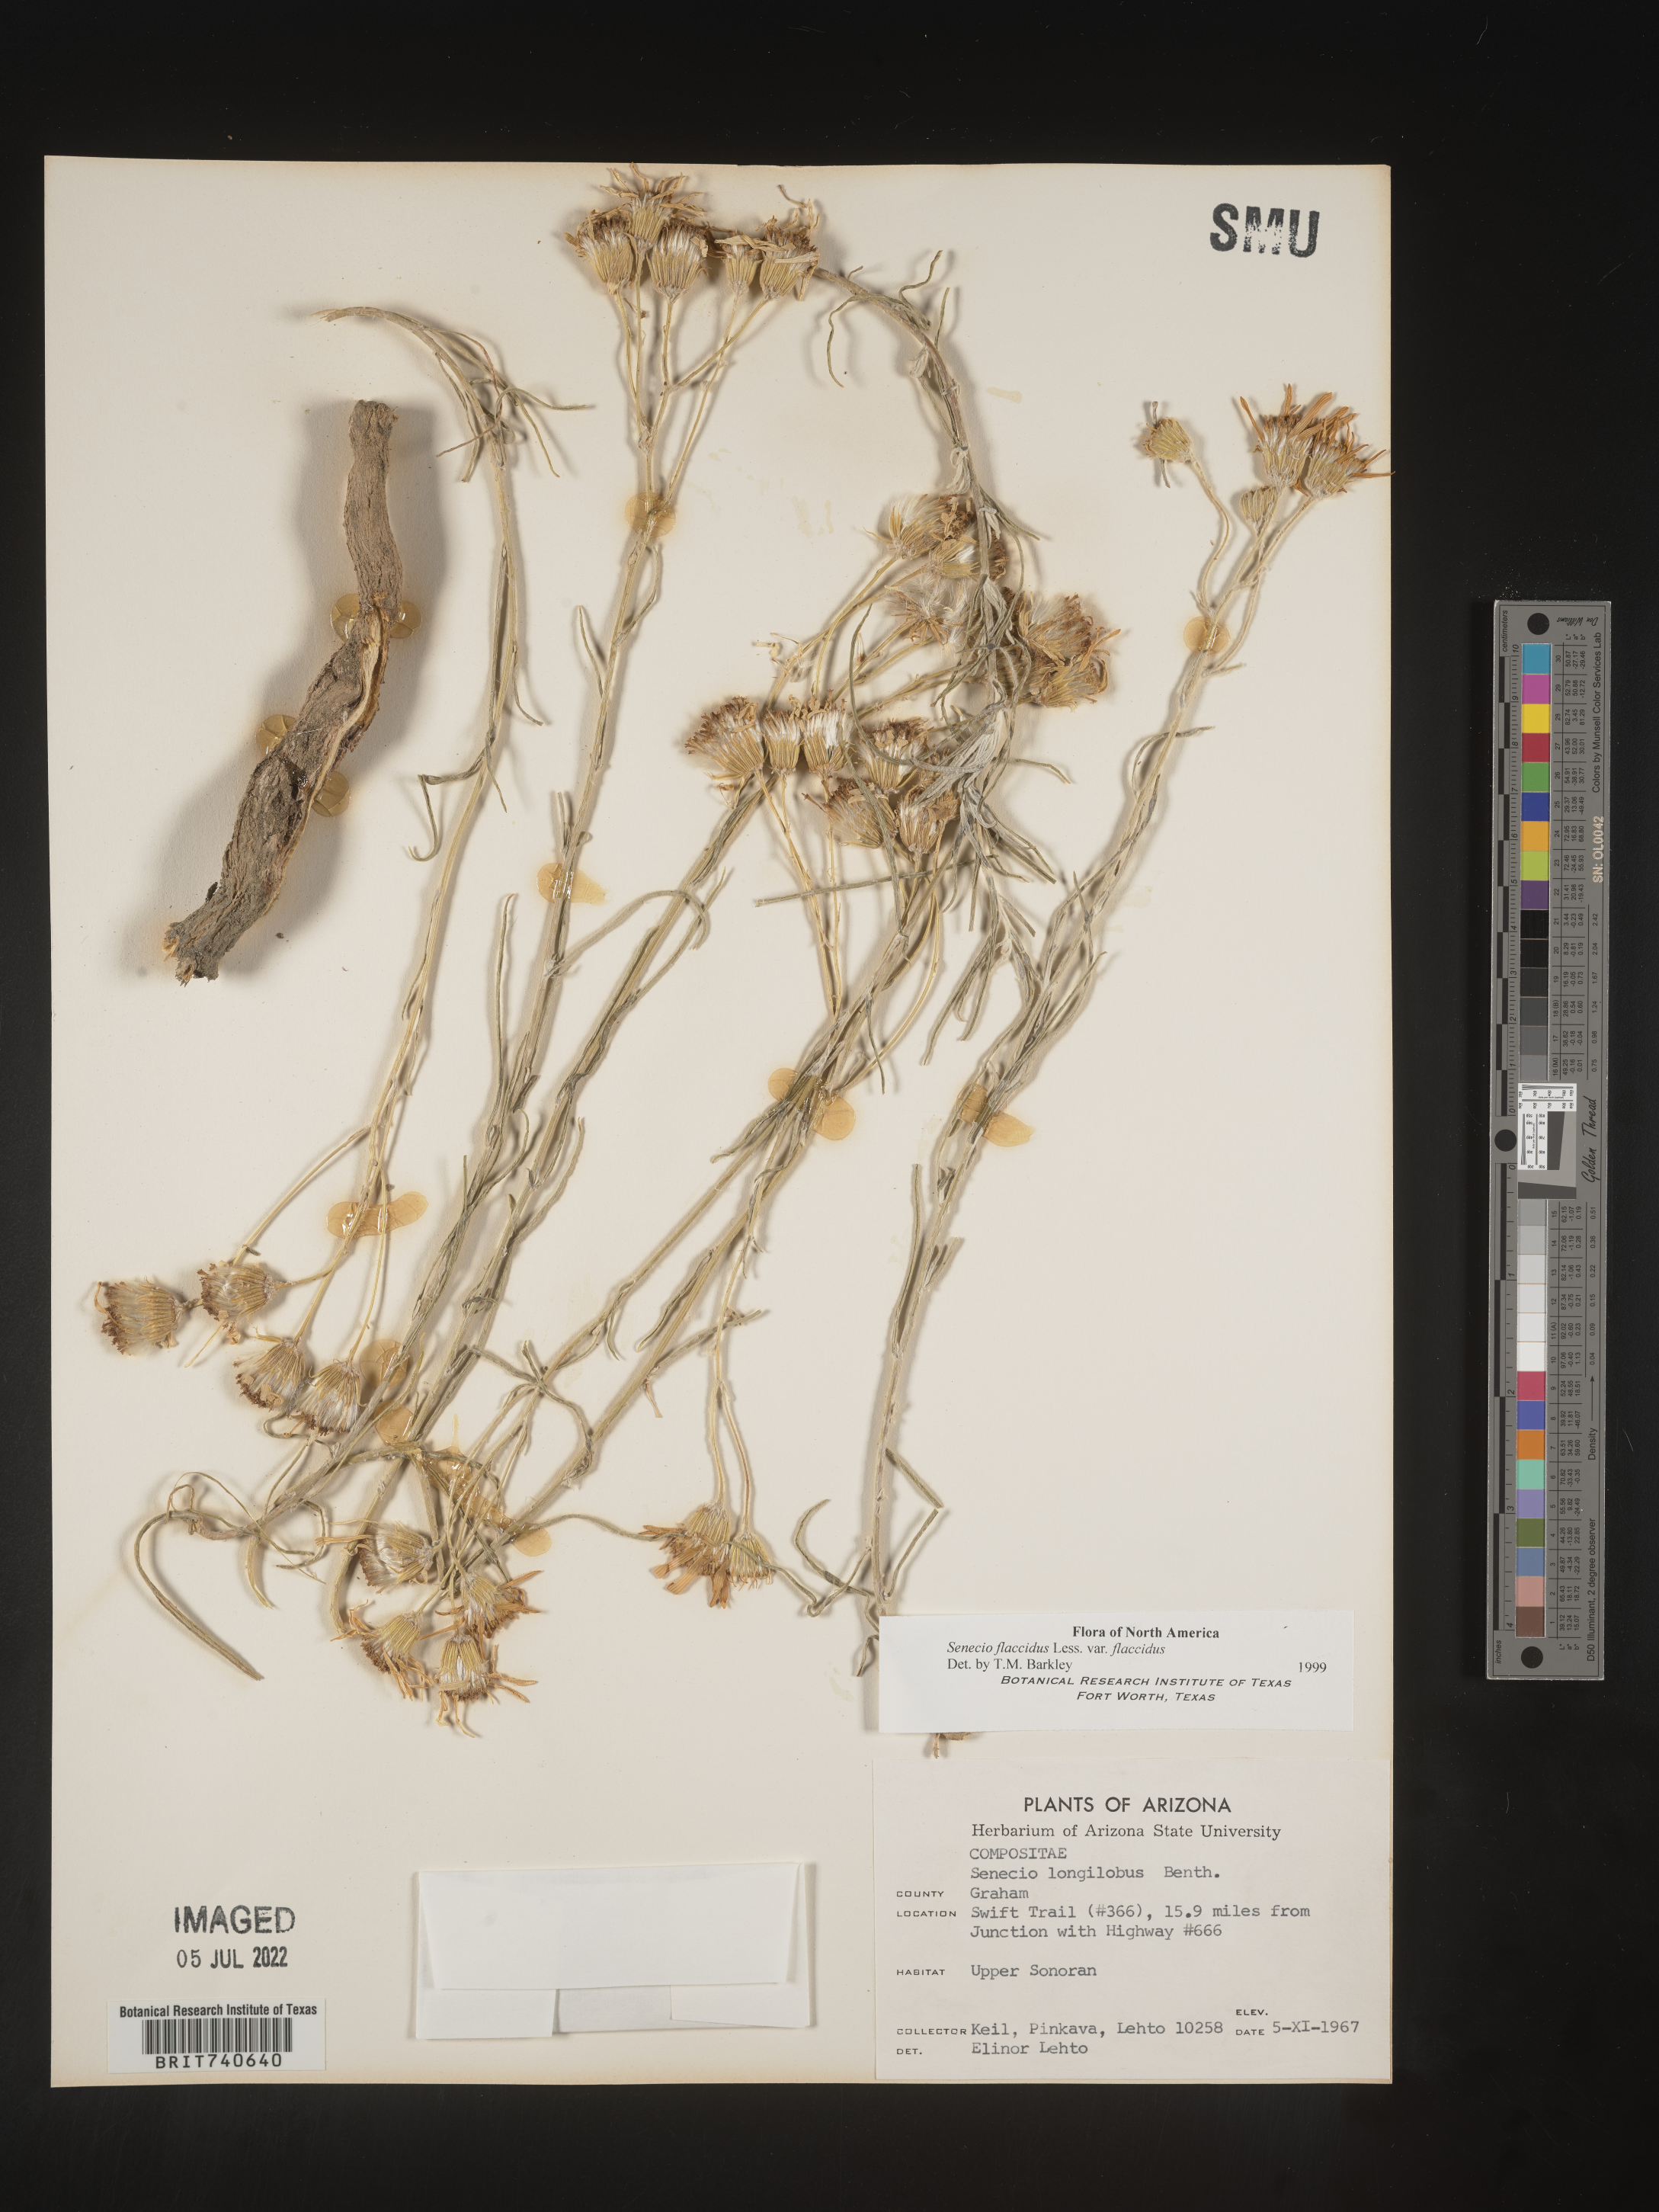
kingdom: Plantae
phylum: Tracheophyta
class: Magnoliopsida
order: Asterales
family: Asteraceae
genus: Senecio
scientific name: Senecio flaccidus
